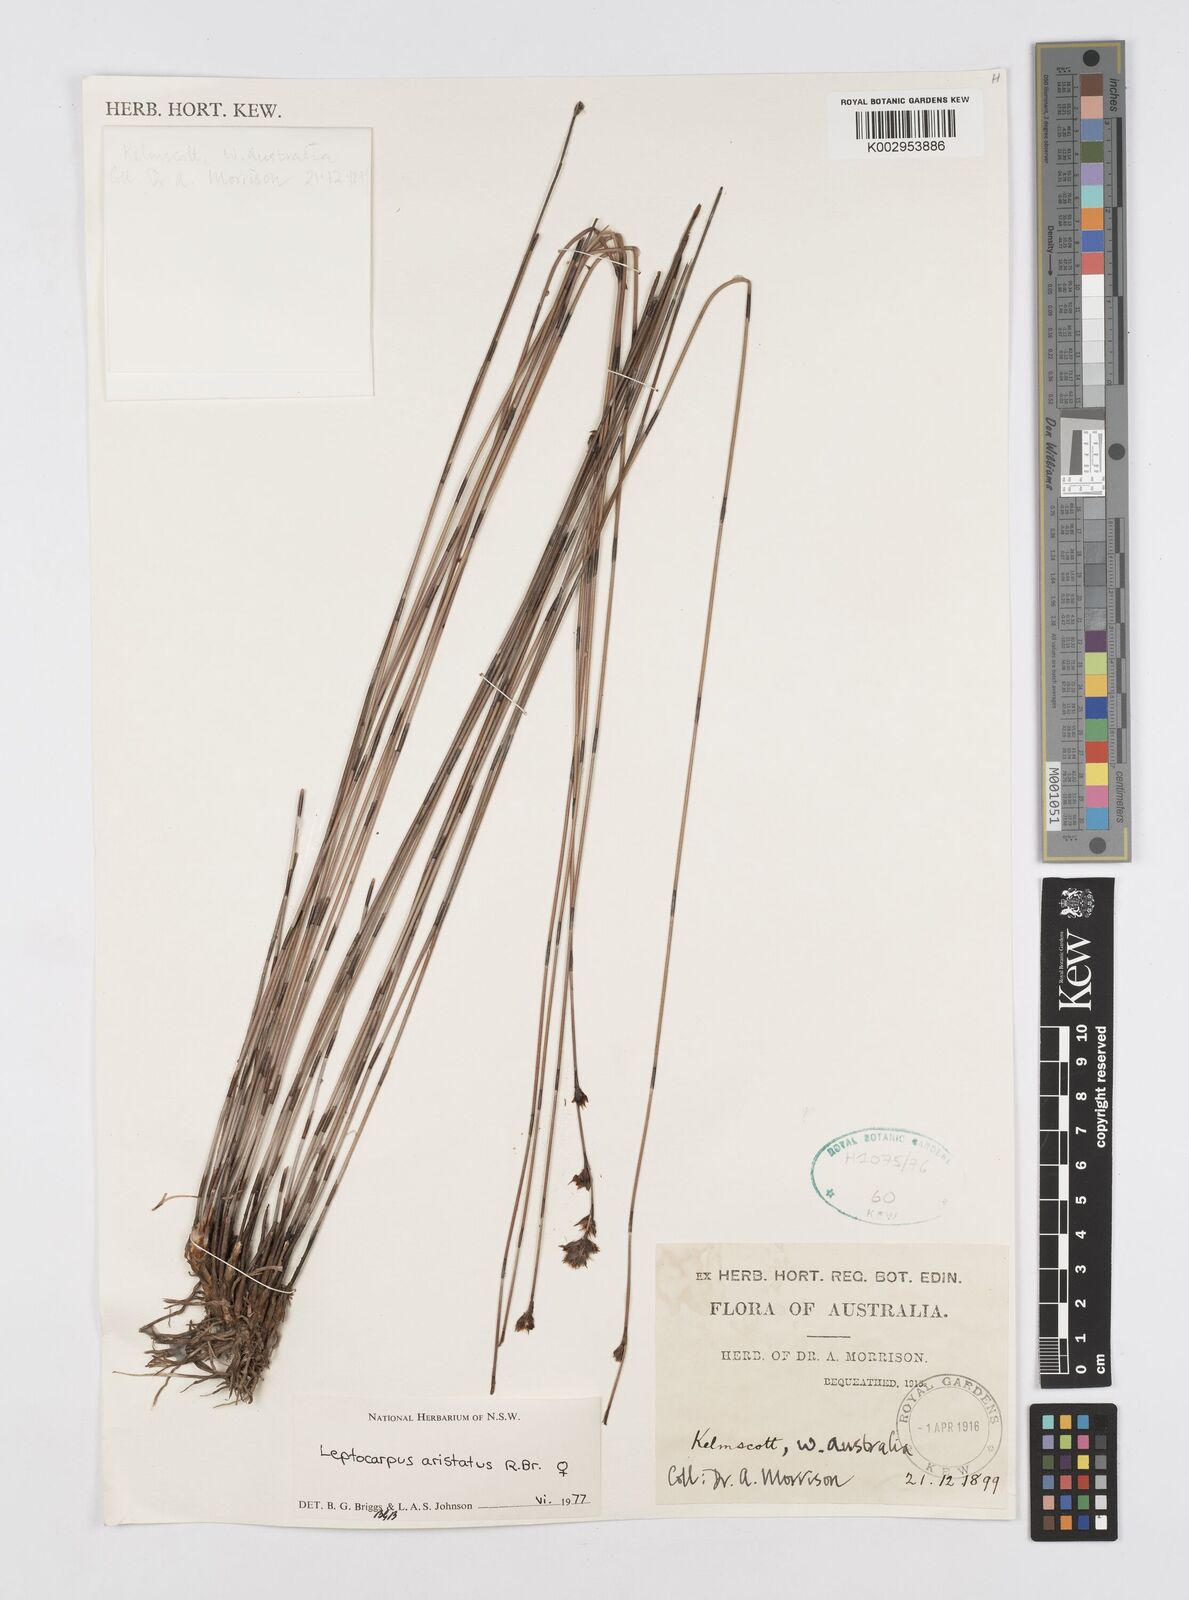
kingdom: Plantae
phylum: Tracheophyta
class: Liliopsida
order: Poales
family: Restionaceae
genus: Chaetanthus
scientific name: Chaetanthus aristatus
